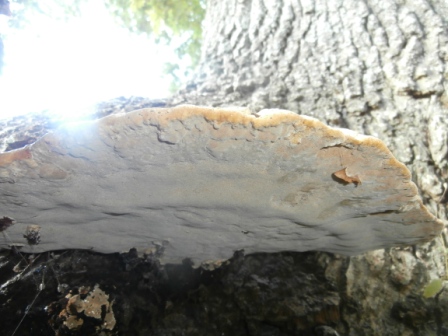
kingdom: Fungi
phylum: Basidiomycota
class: Agaricomycetes
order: Hymenochaetales
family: Hymenochaetaceae
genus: Pseudoinonotus
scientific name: Pseudoinonotus dryadeus
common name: ege-spejlporesvamp
